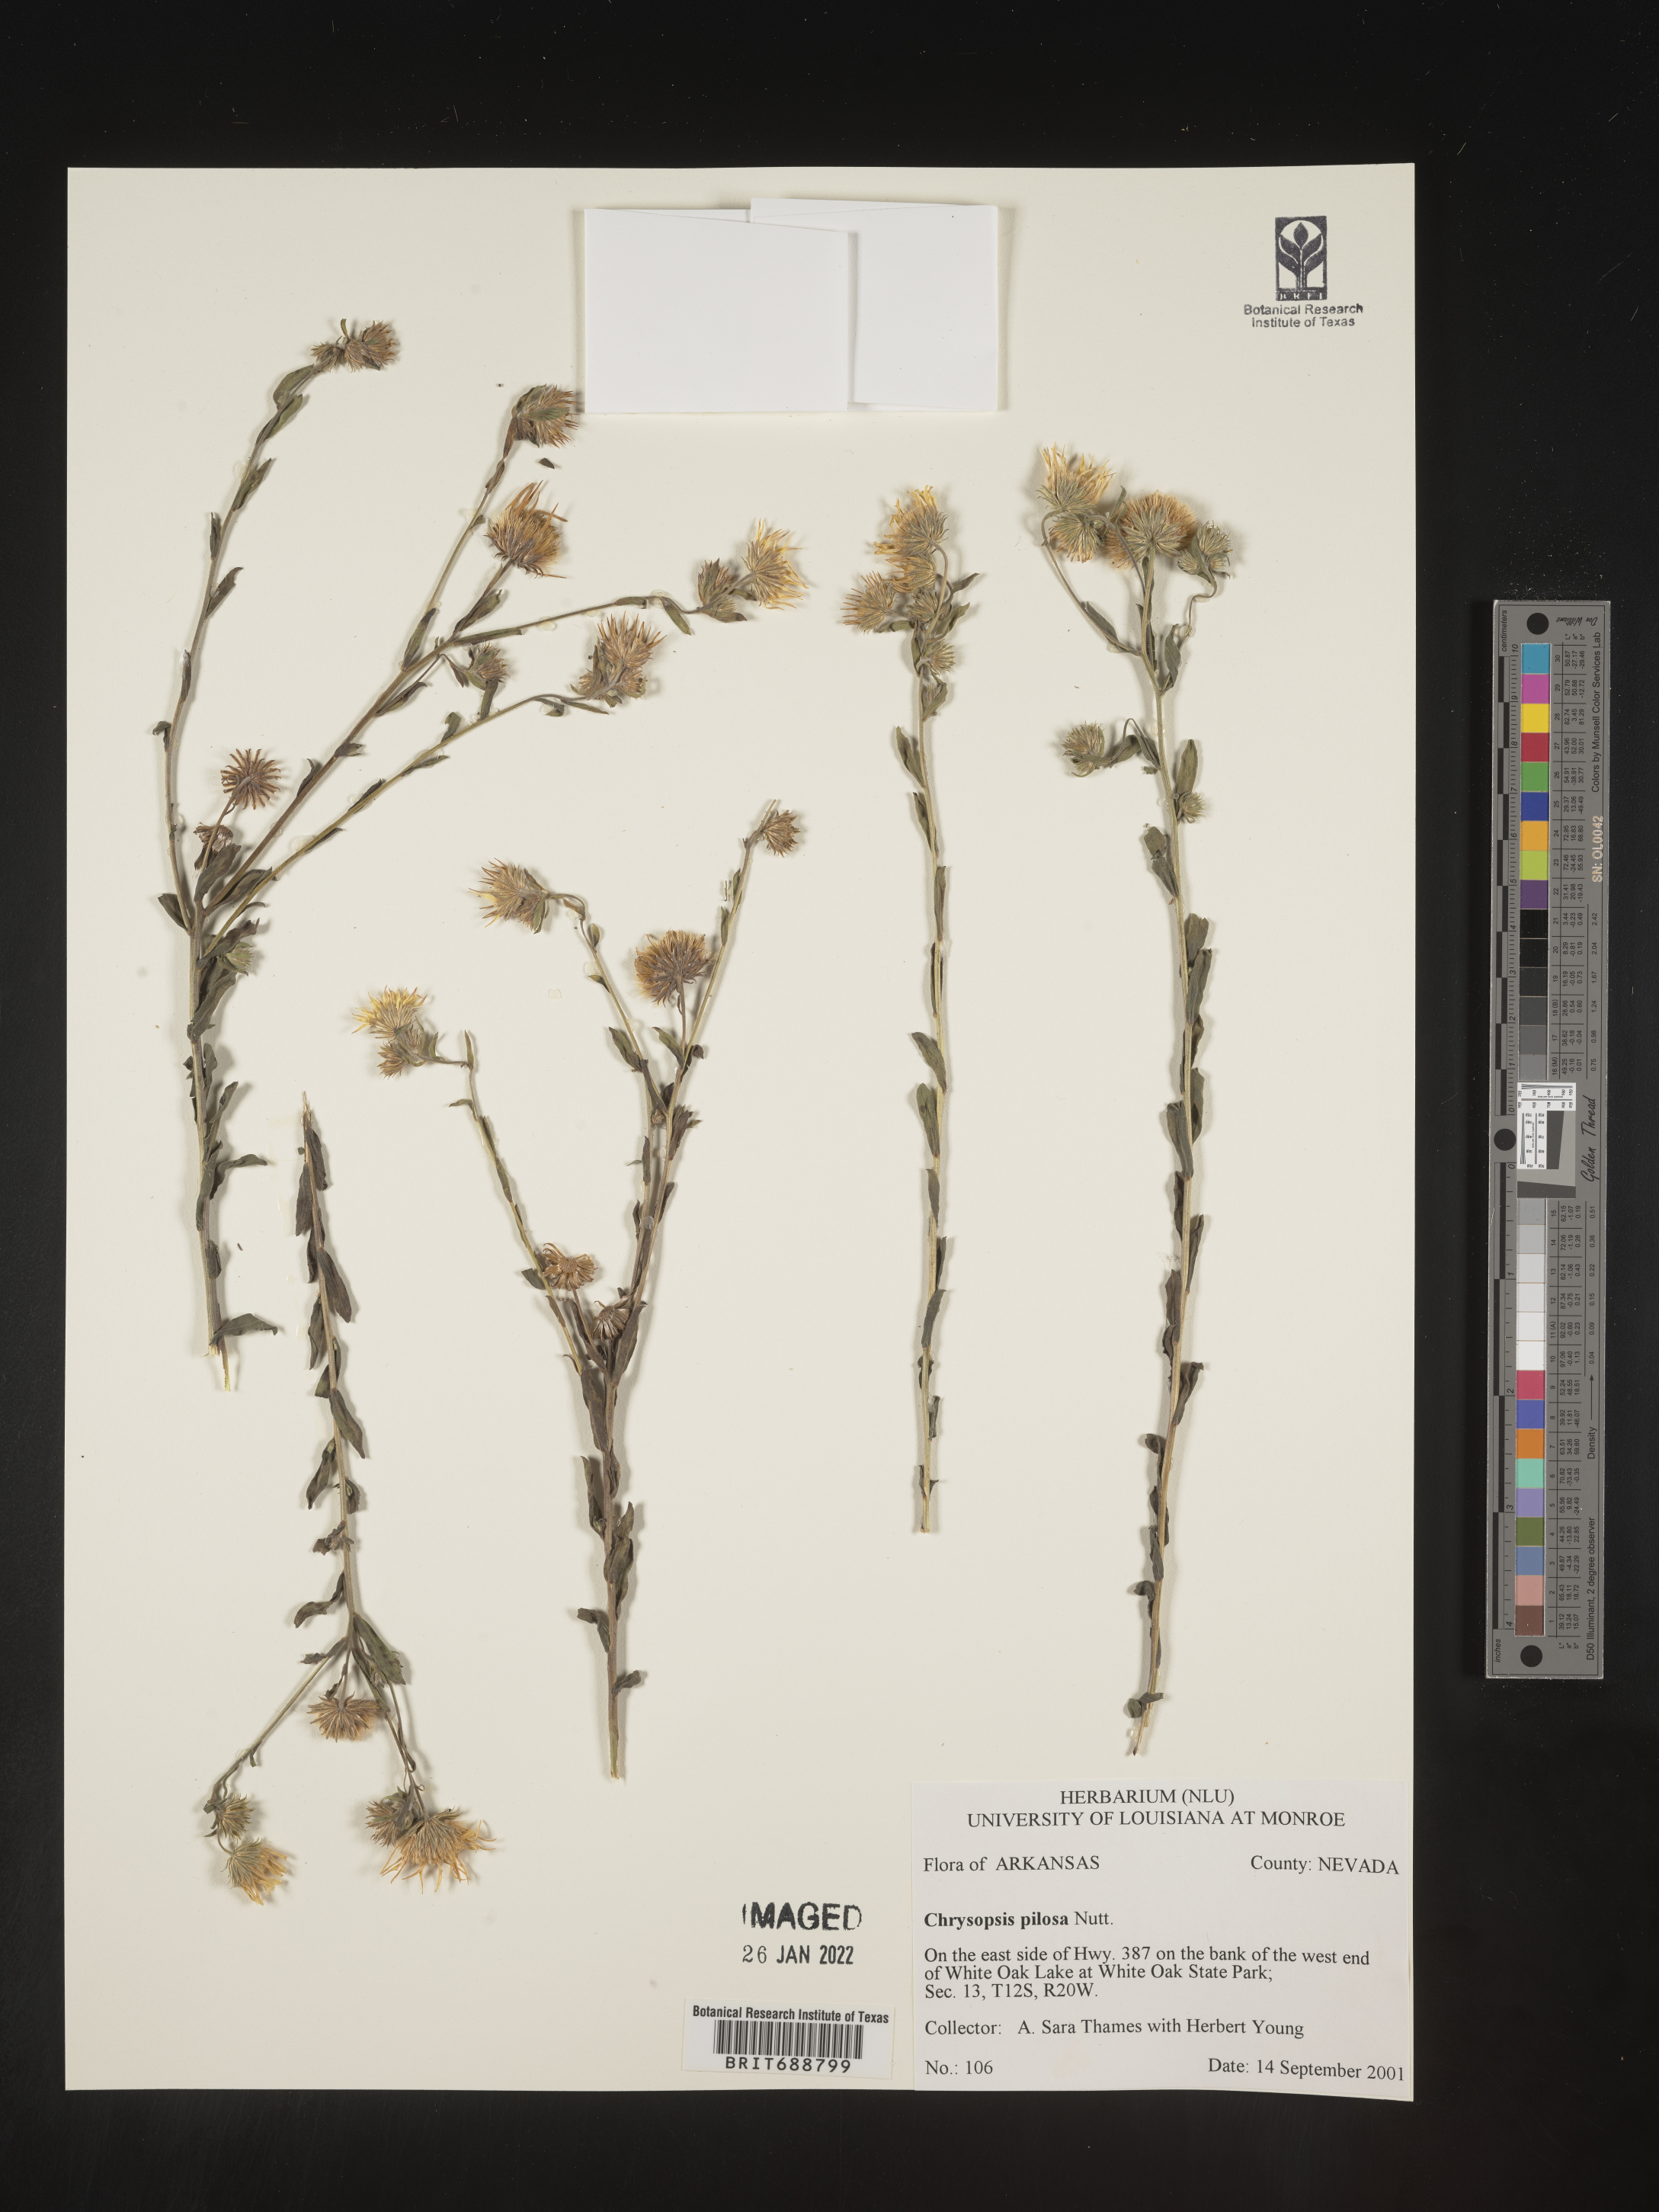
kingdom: Plantae
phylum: Tracheophyta
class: Magnoliopsida
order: Asterales
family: Asteraceae
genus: Bradburia
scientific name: Bradburia pilosa
